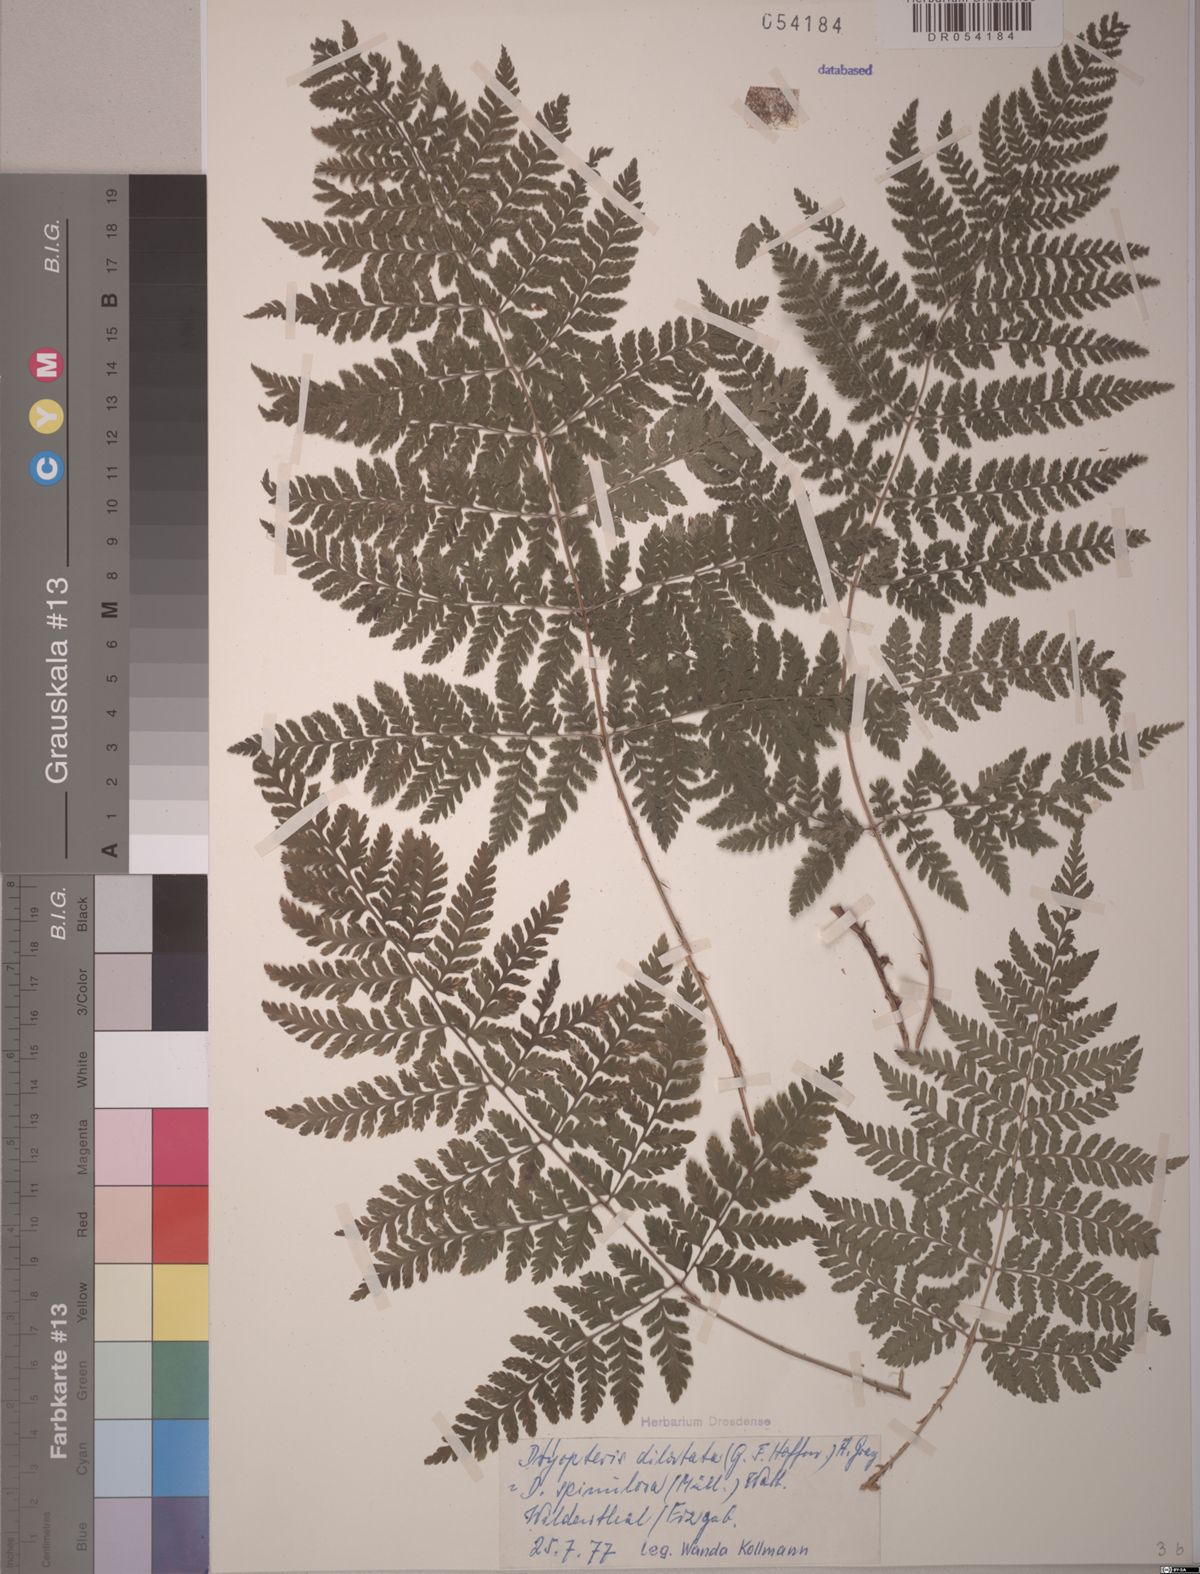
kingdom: Plantae
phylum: Tracheophyta
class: Polypodiopsida
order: Polypodiales
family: Dryopteridaceae
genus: Dryopteris
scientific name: Dryopteris dilatata
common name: Broad buckler-fern
